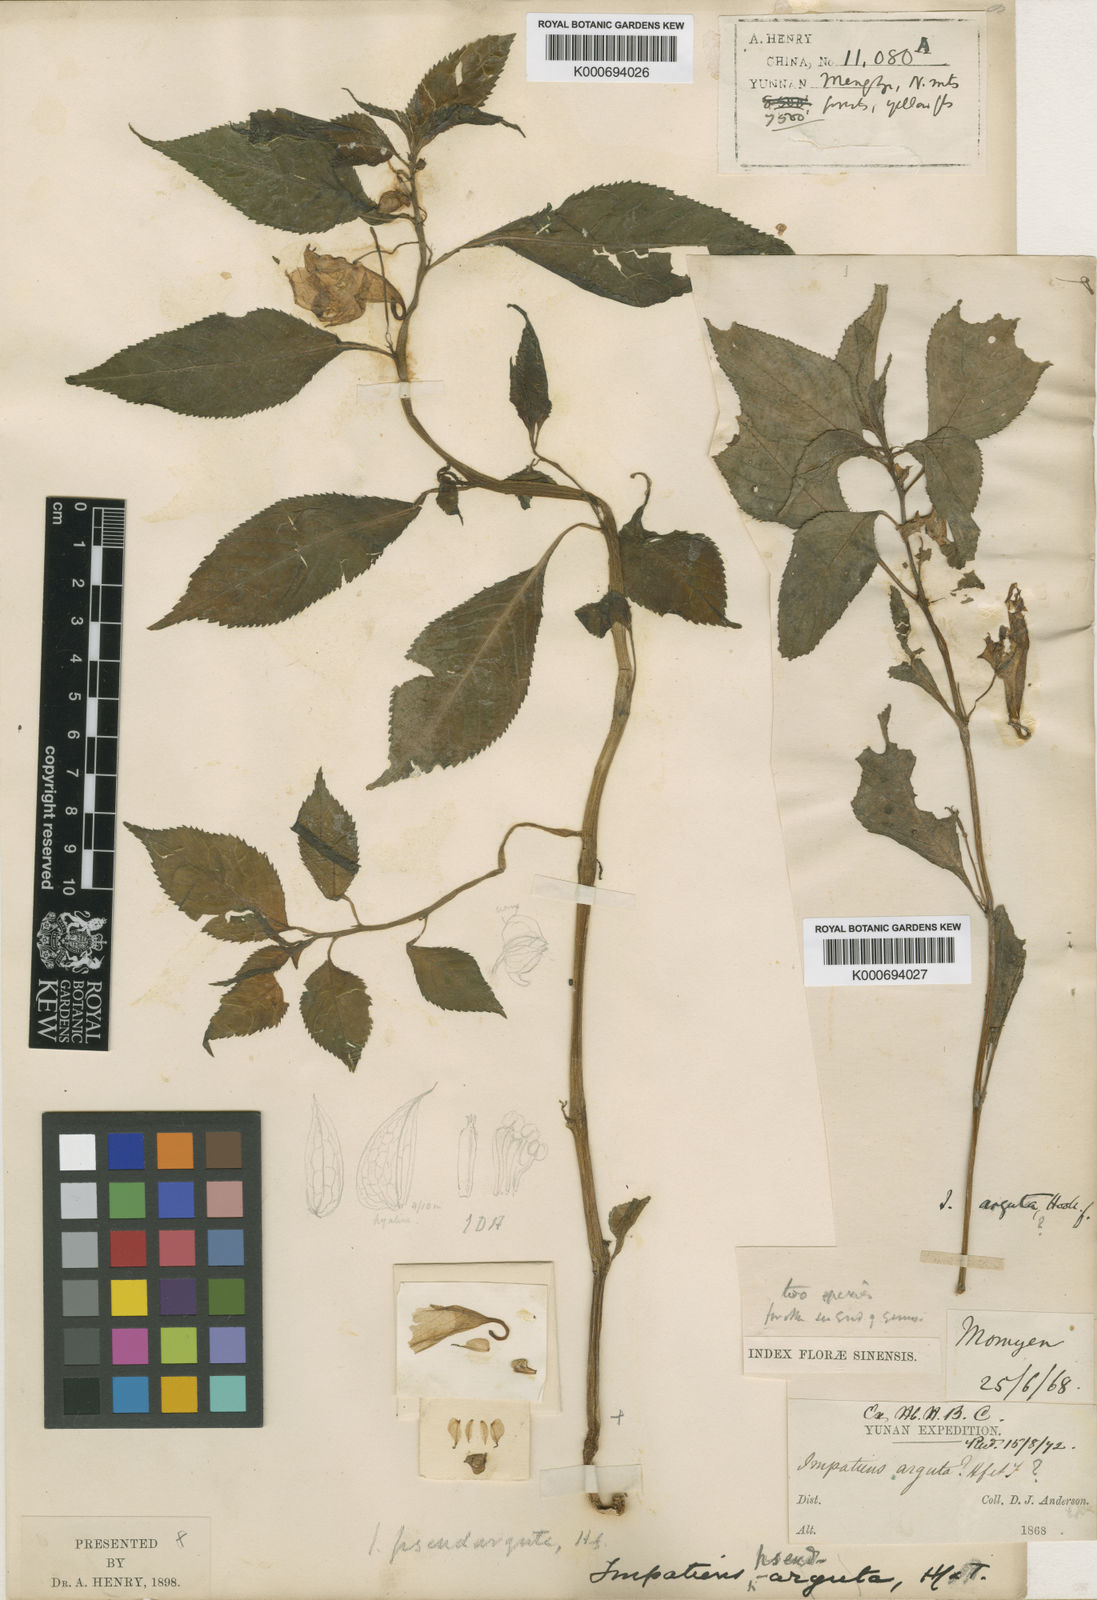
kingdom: Plantae
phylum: Tracheophyta
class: Magnoliopsida
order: Ericales
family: Balsaminaceae
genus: Impatiens
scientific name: Impatiens
